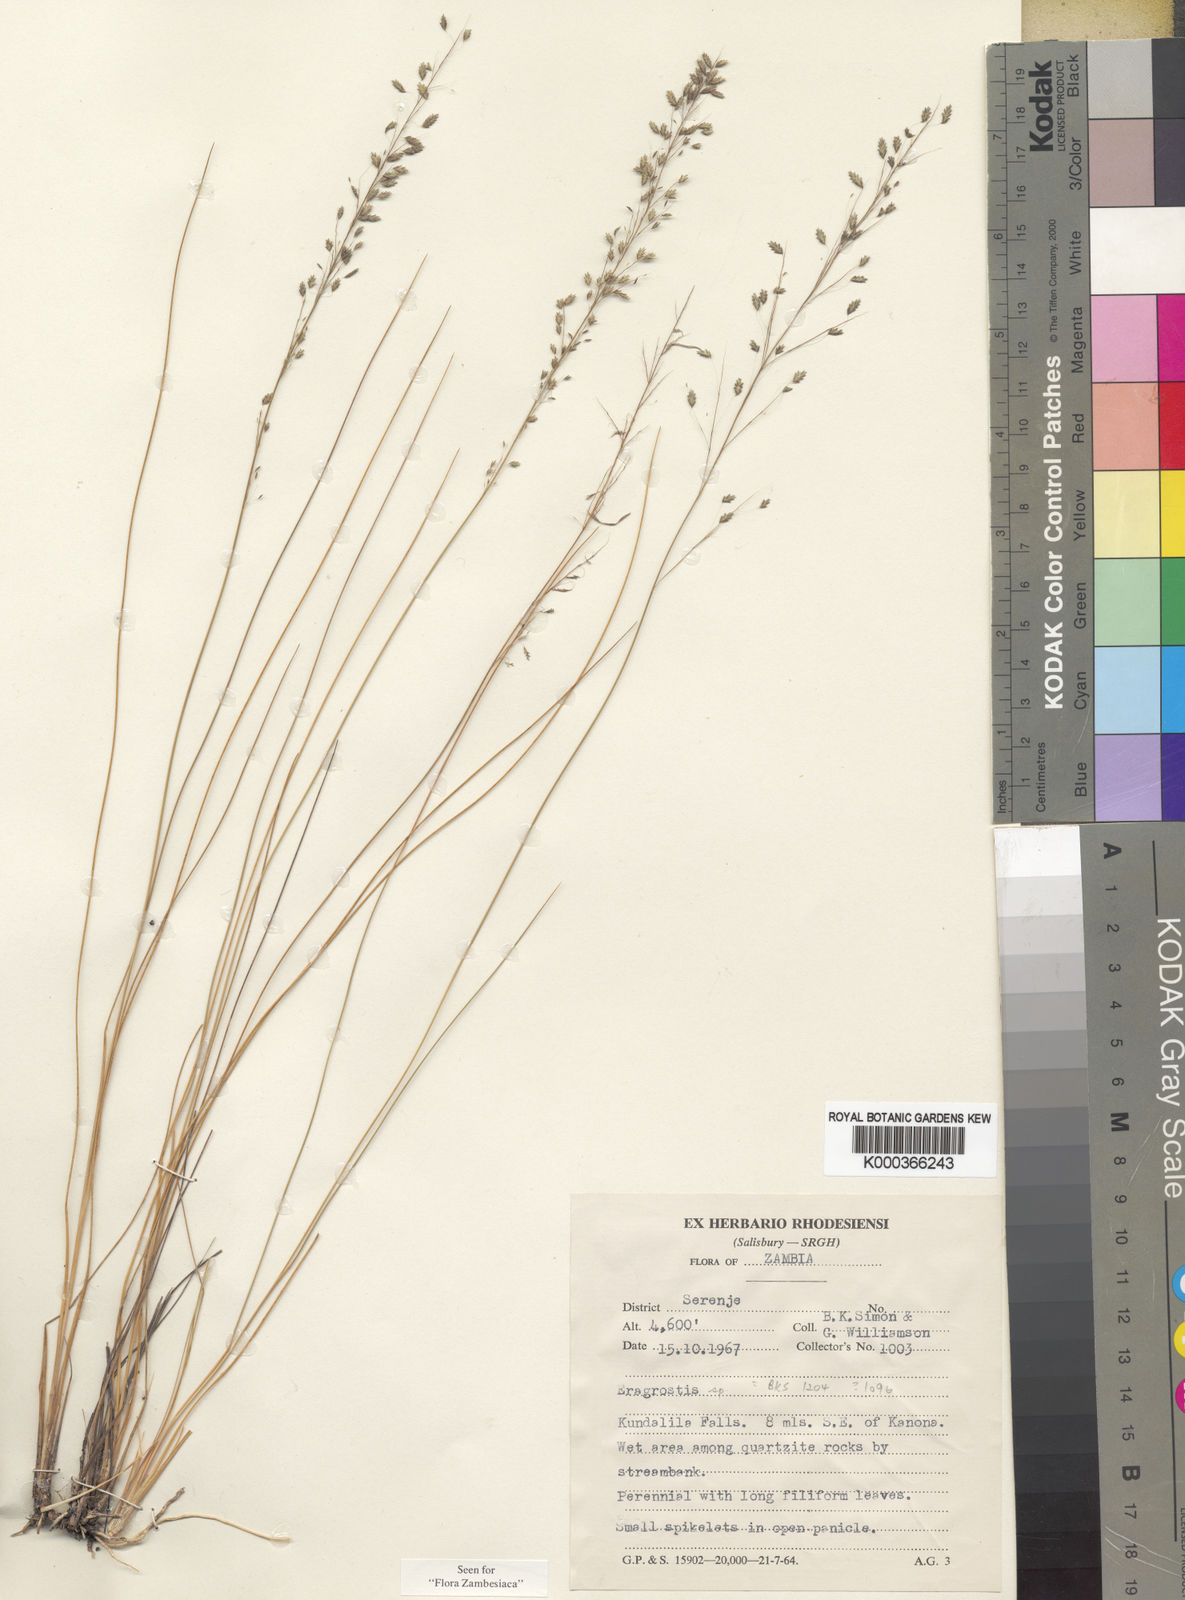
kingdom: Plantae
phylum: Tracheophyta
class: Liliopsida
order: Poales
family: Poaceae
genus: Eragrostis
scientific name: Eragrostis anacrantha
